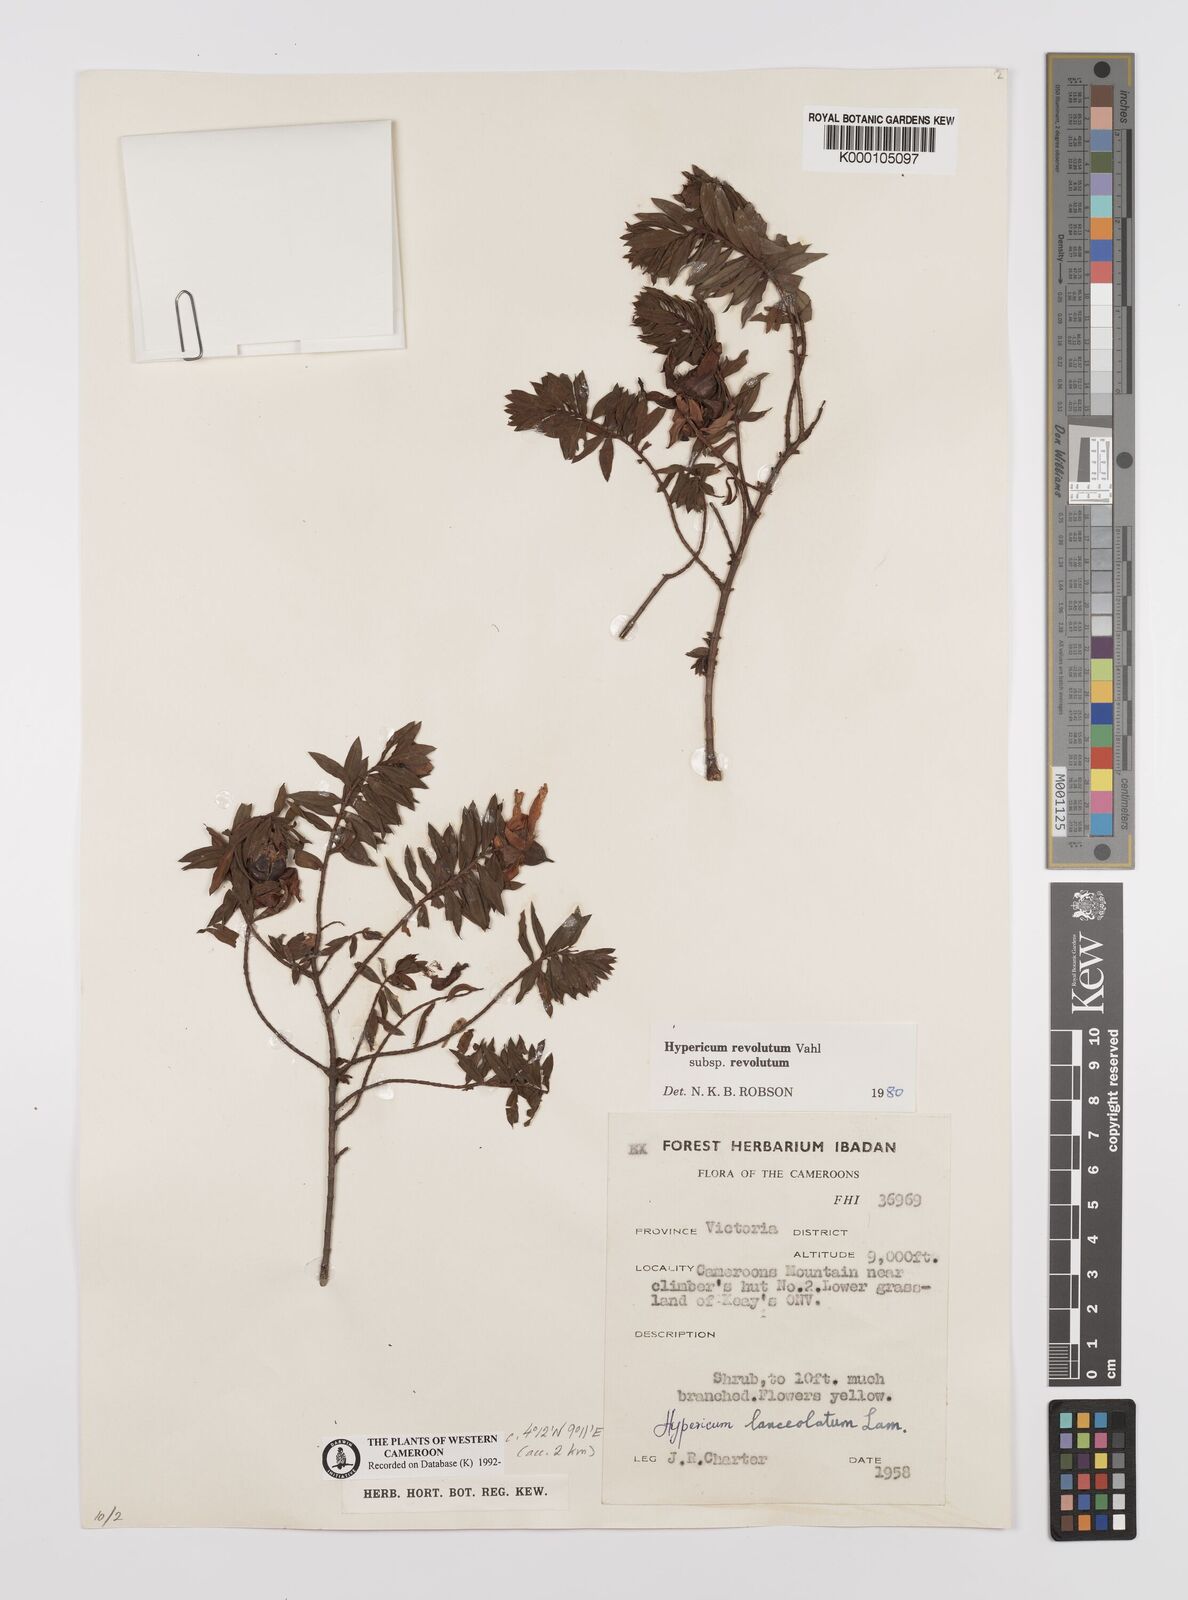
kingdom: Plantae
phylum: Tracheophyta
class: Magnoliopsida
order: Malpighiales
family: Hypericaceae
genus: Hypericum
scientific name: Hypericum revolutum
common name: Curry bush
